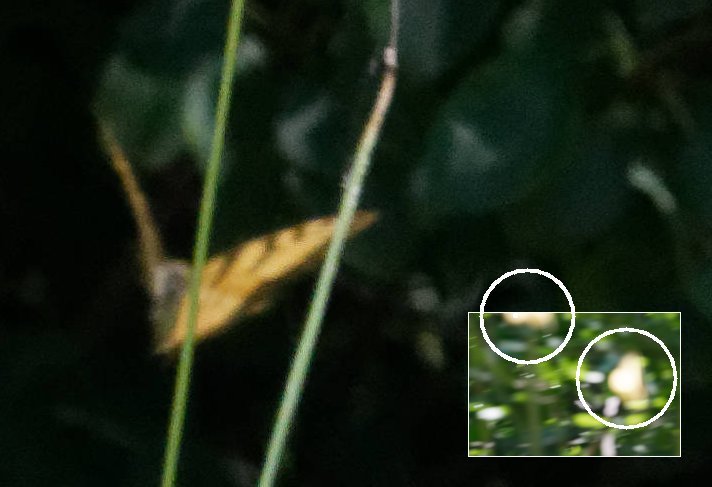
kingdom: Animalia
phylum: Arthropoda
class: Insecta
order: Lepidoptera
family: Papilionidae
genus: Pterourus
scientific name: Pterourus
